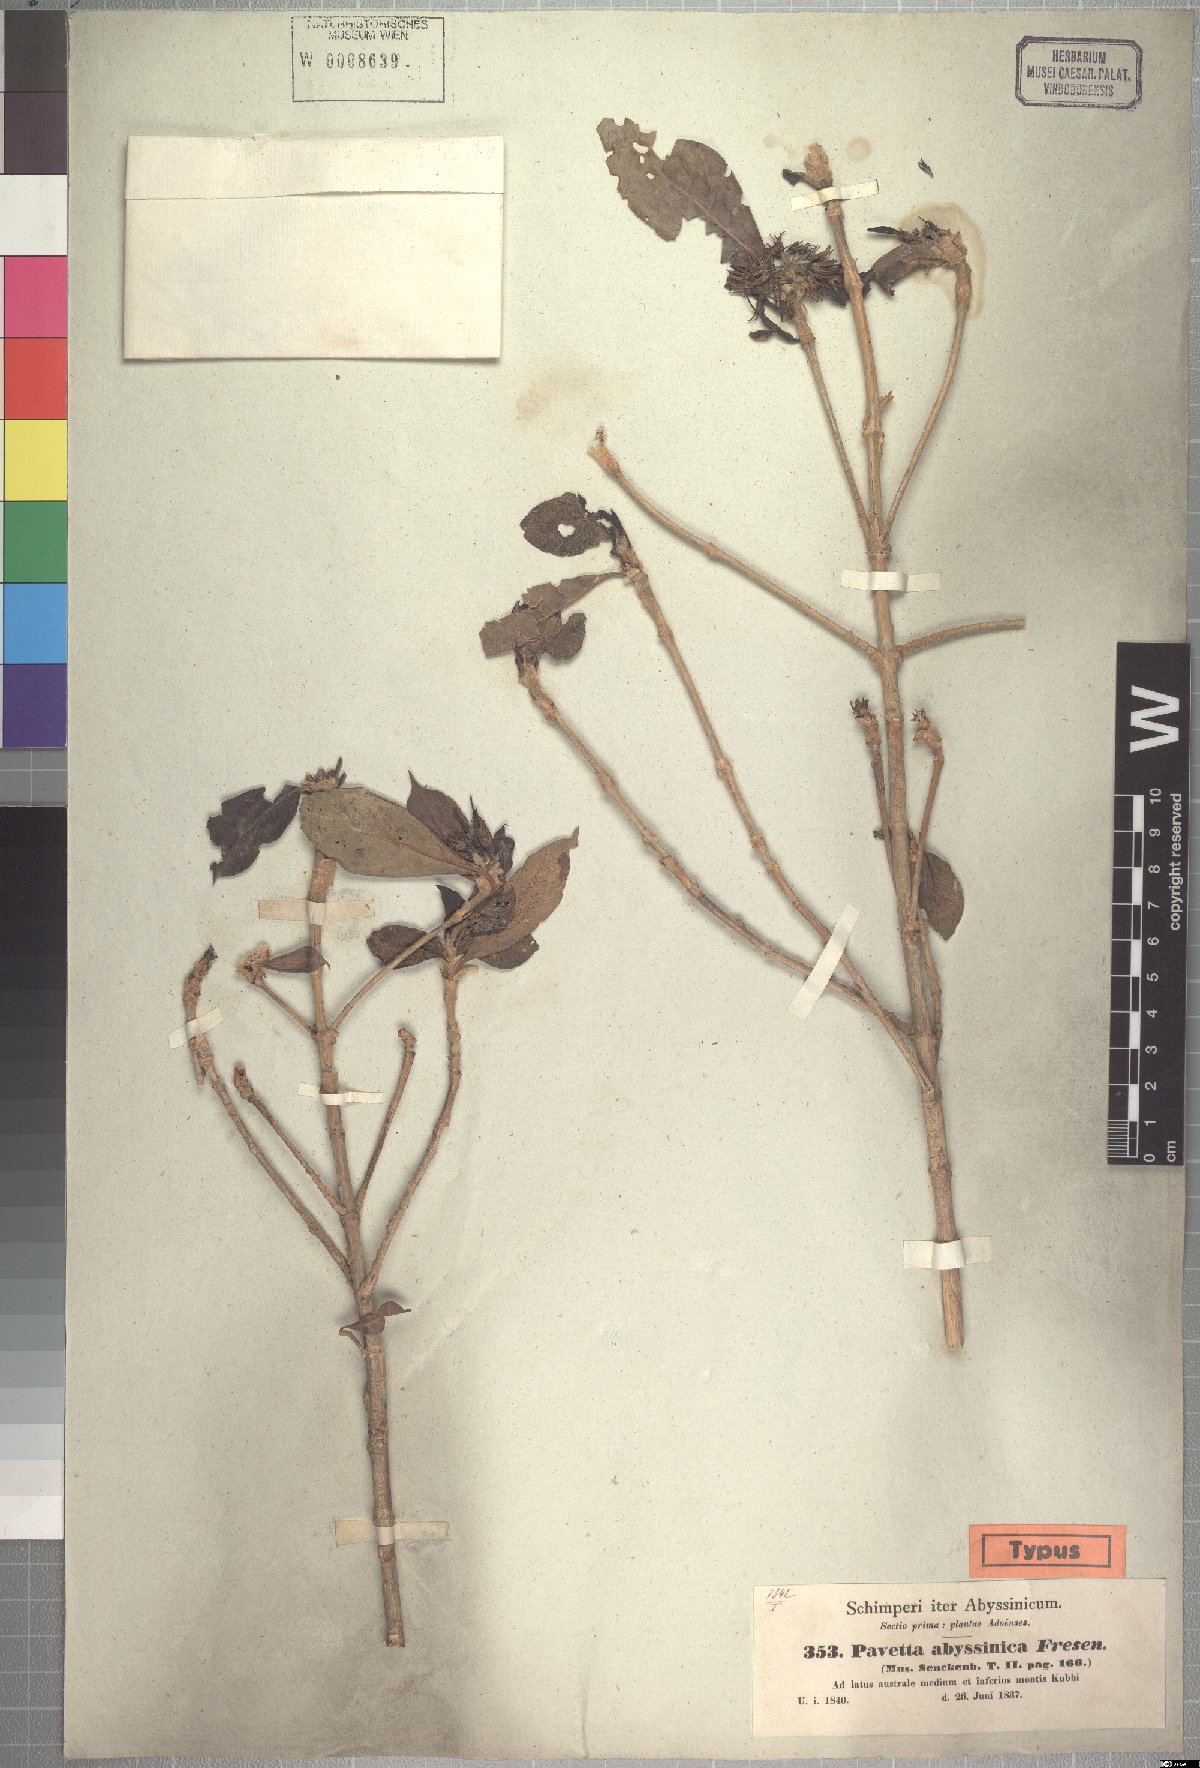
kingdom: Plantae
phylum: Tracheophyta
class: Magnoliopsida
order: Gentianales
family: Rubiaceae
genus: Pavetta
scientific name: Pavetta abyssinica
